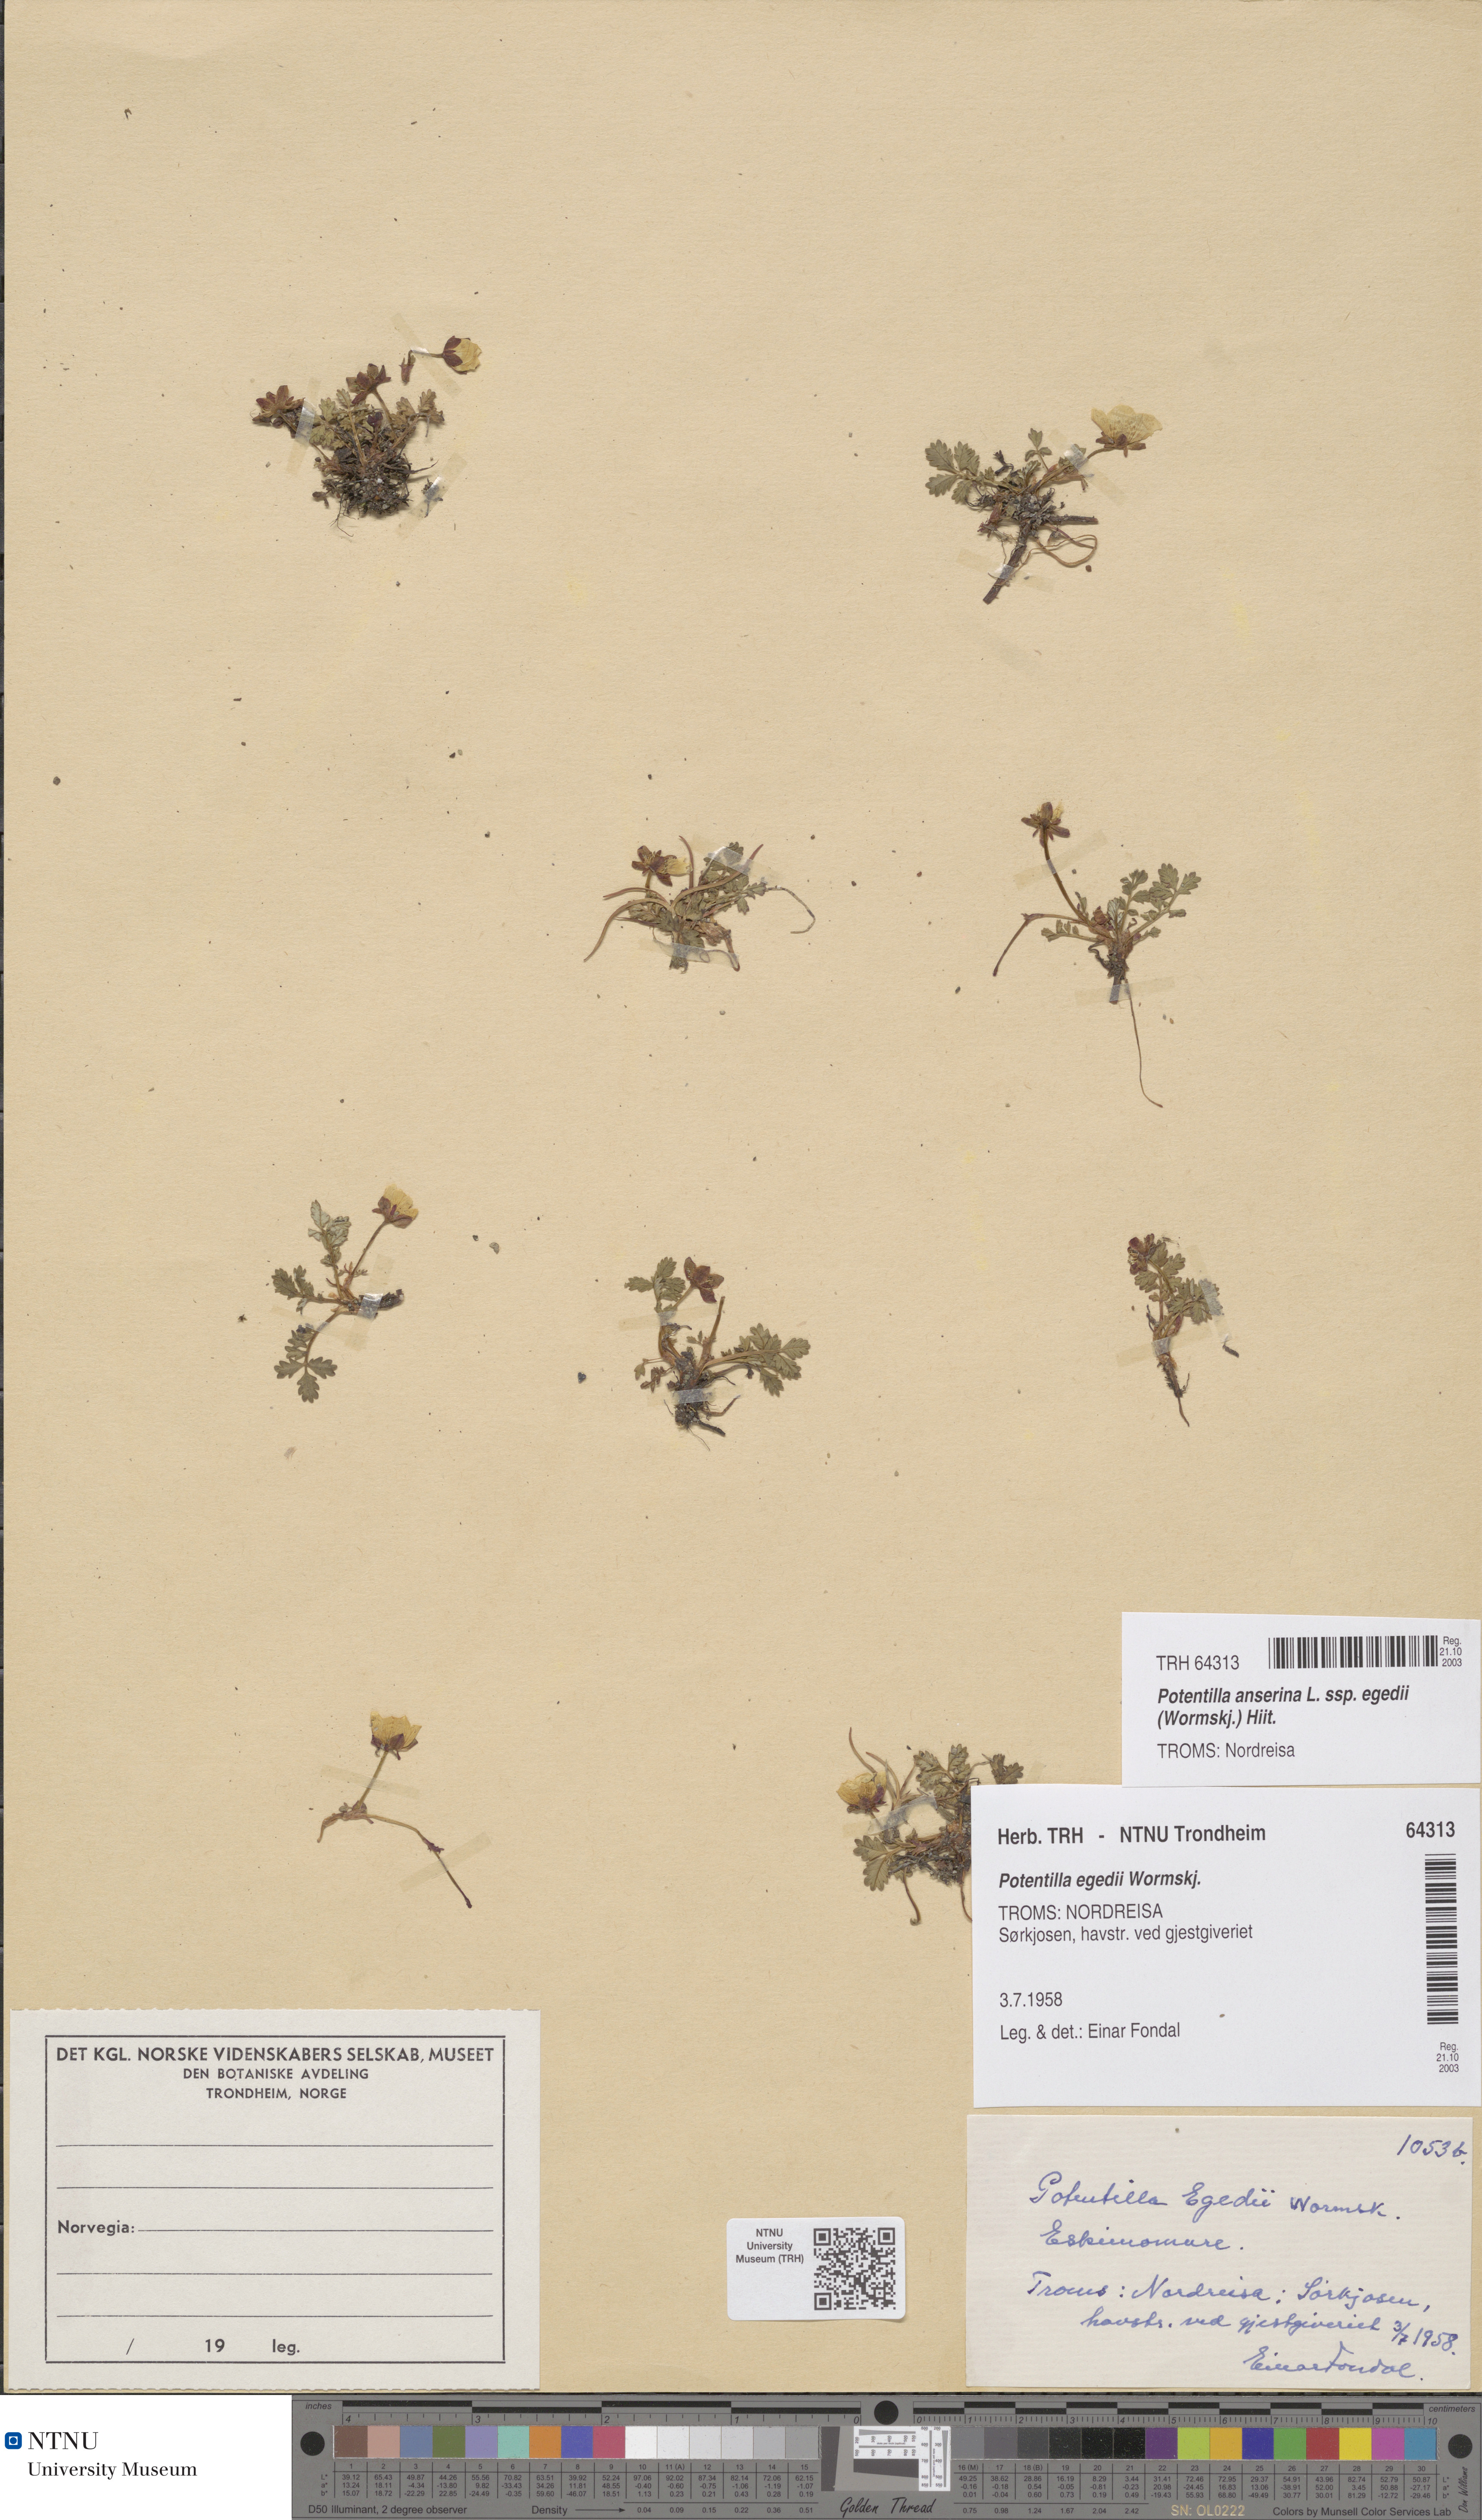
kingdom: Plantae
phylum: Tracheophyta
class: Magnoliopsida
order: Rosales
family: Rosaceae
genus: Argentina
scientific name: Argentina anserina
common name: Common silverweed
